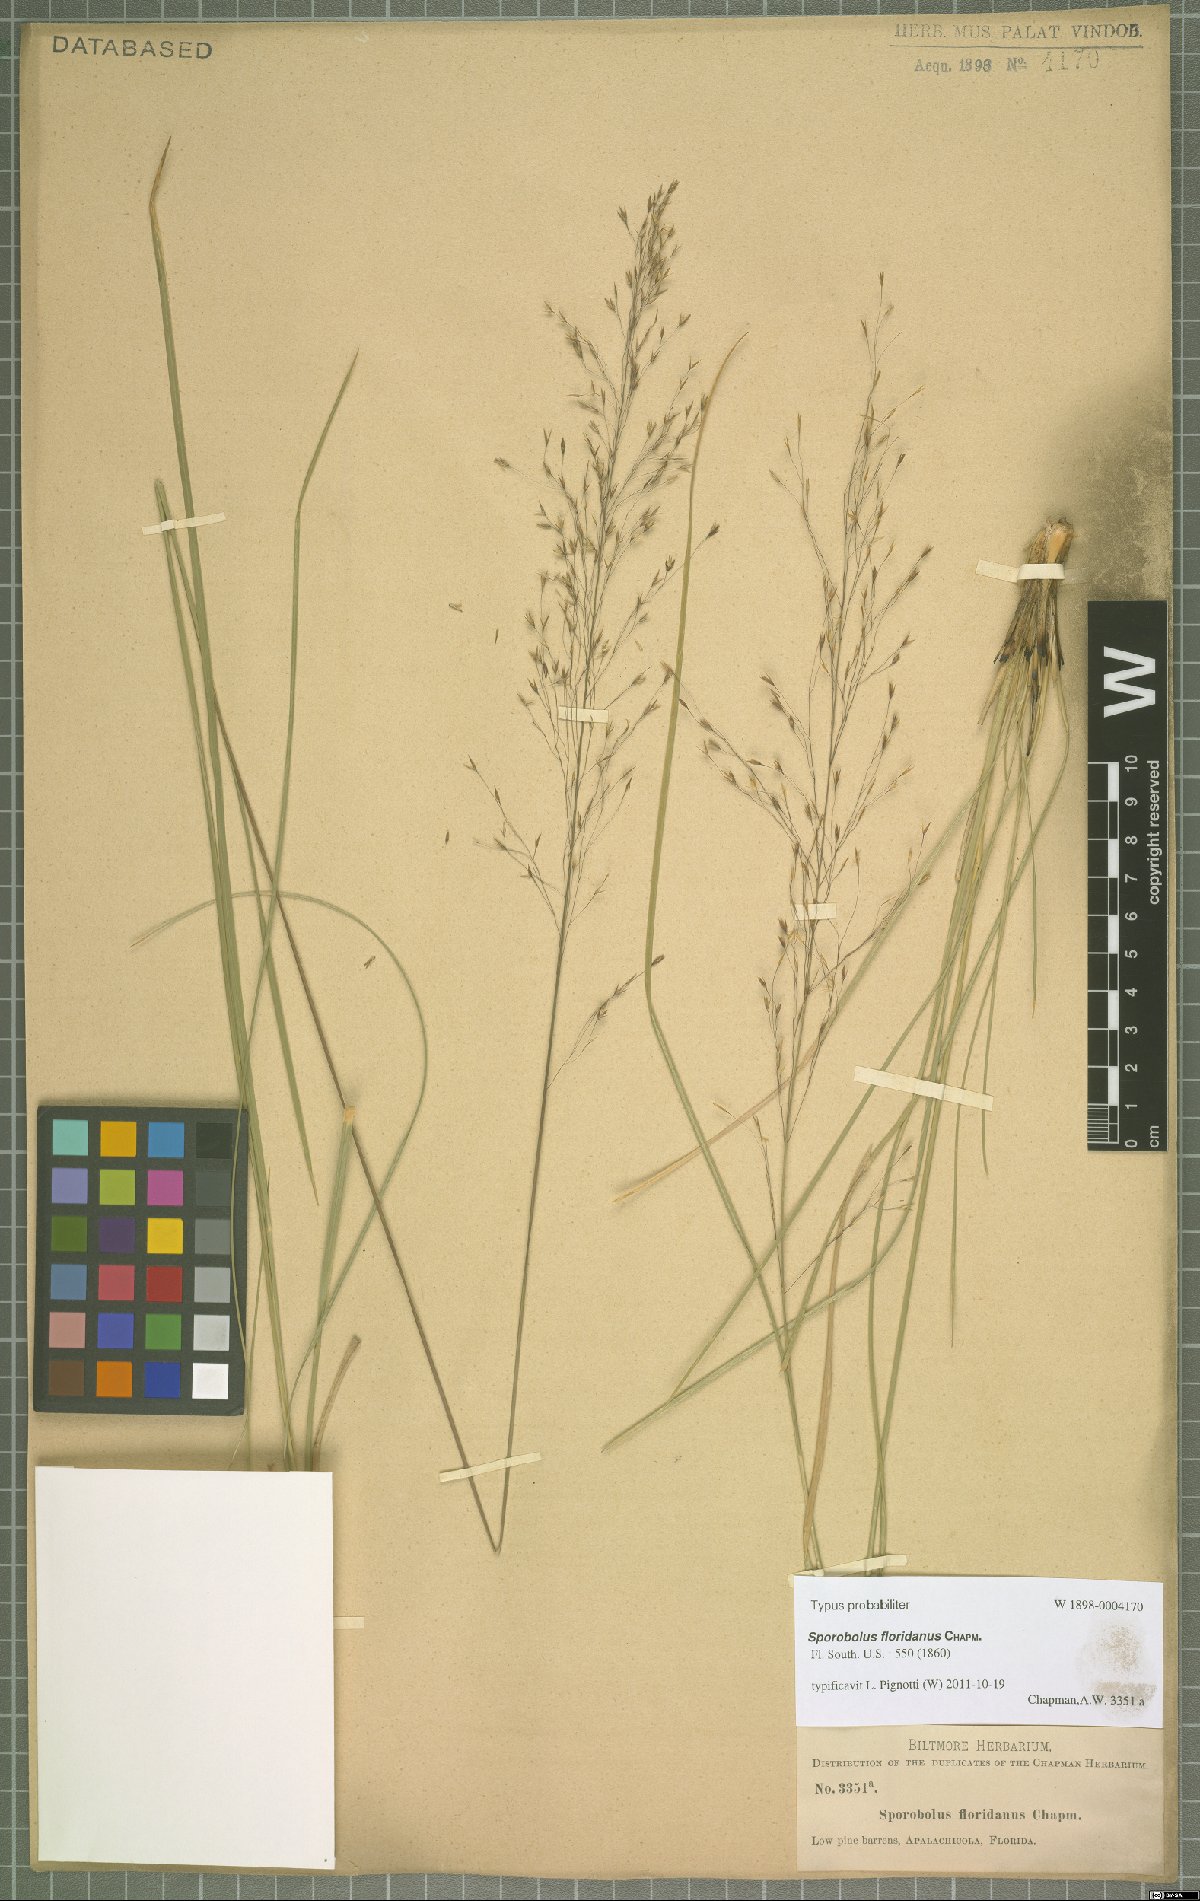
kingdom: Plantae
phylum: Tracheophyta
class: Liliopsida
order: Poales
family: Poaceae
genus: Sporobolus
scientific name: Sporobolus floridanus
